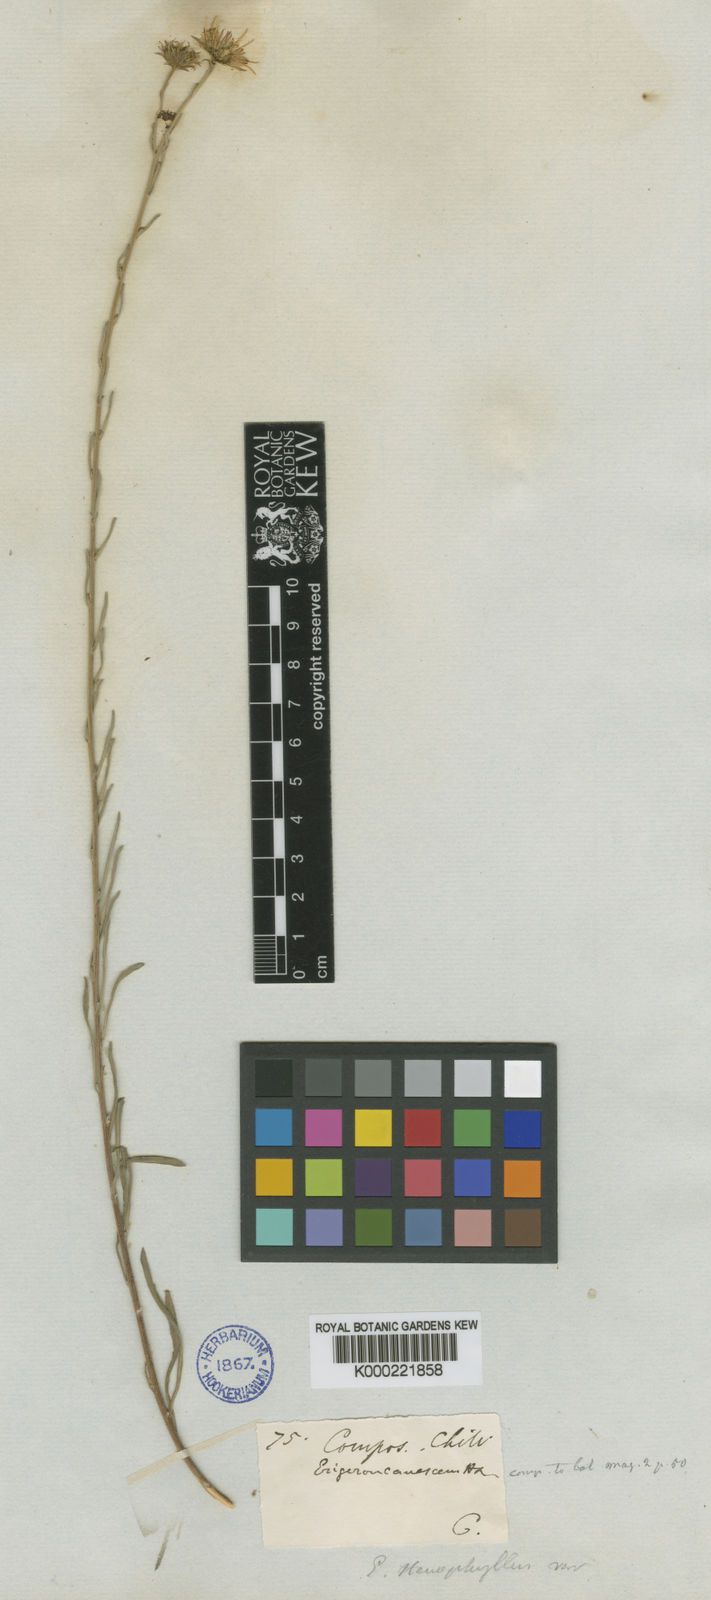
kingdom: Plantae
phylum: Tracheophyta
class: Magnoliopsida
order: Asterales
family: Asteraceae
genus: Erigeron
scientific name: Erigeron stenophyllus
